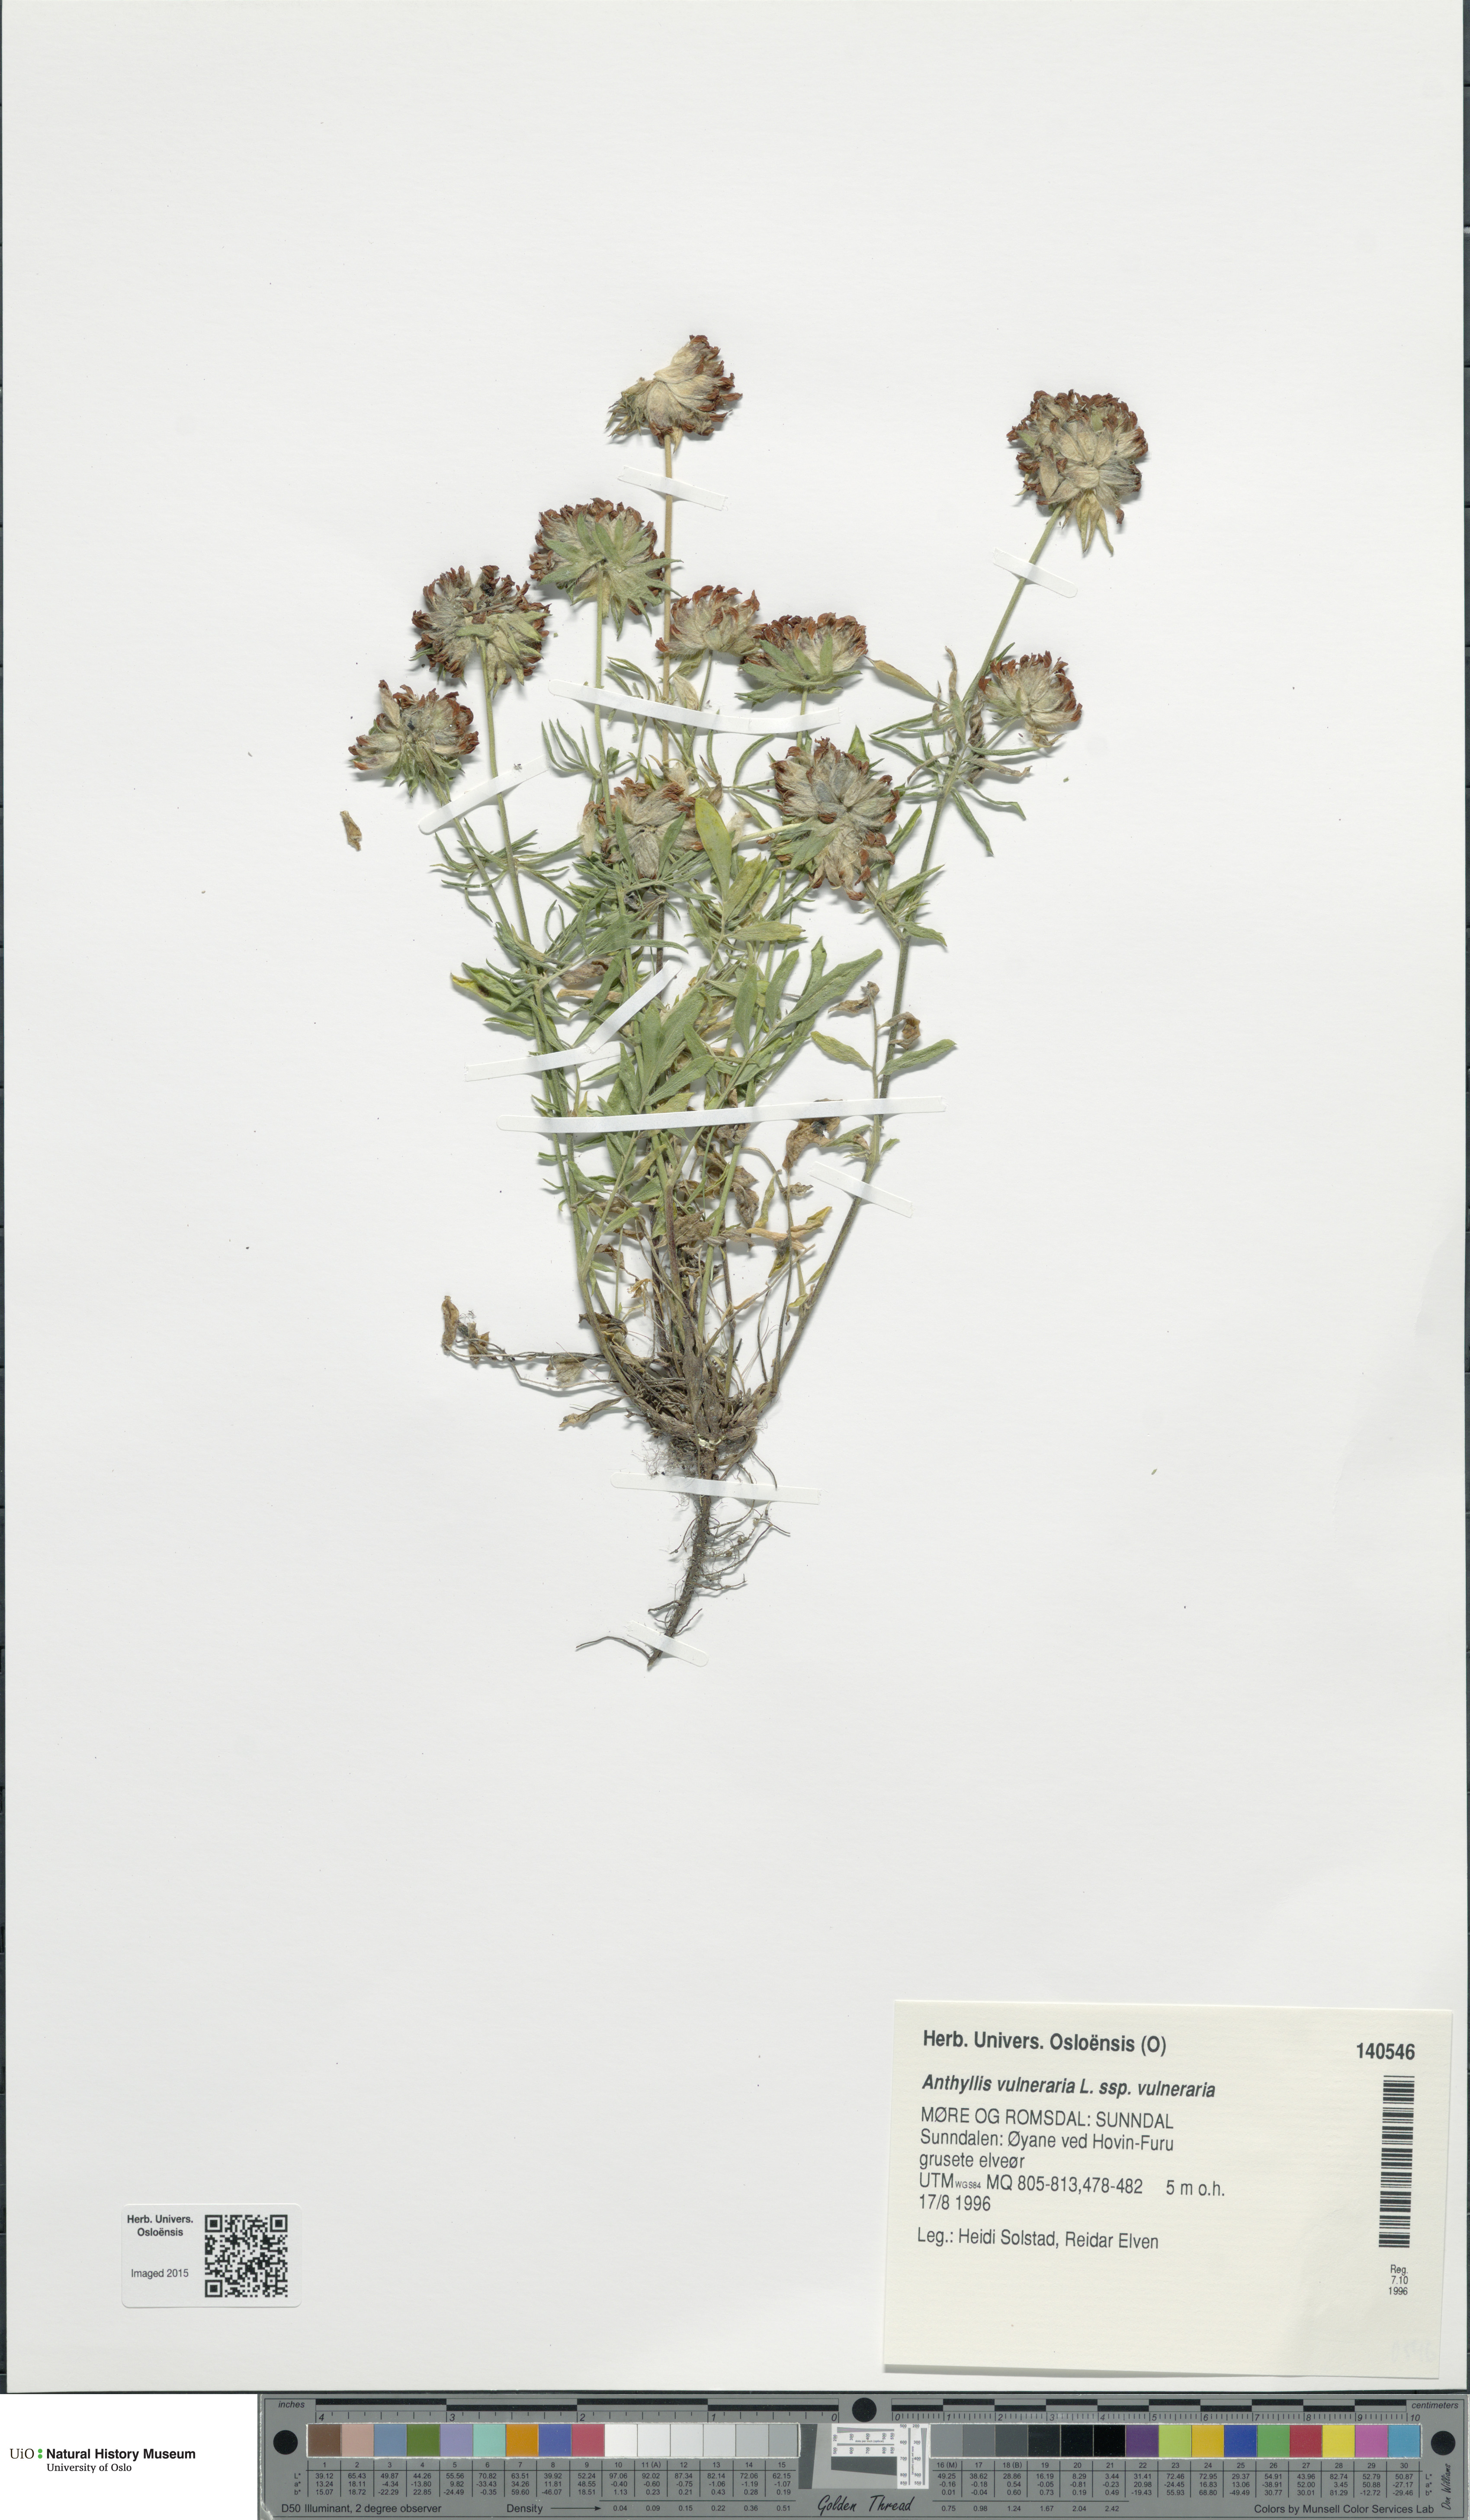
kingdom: Plantae
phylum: Tracheophyta
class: Magnoliopsida
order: Fabales
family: Fabaceae
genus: Anthyllis
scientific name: Anthyllis vulneraria
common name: Kidney vetch
